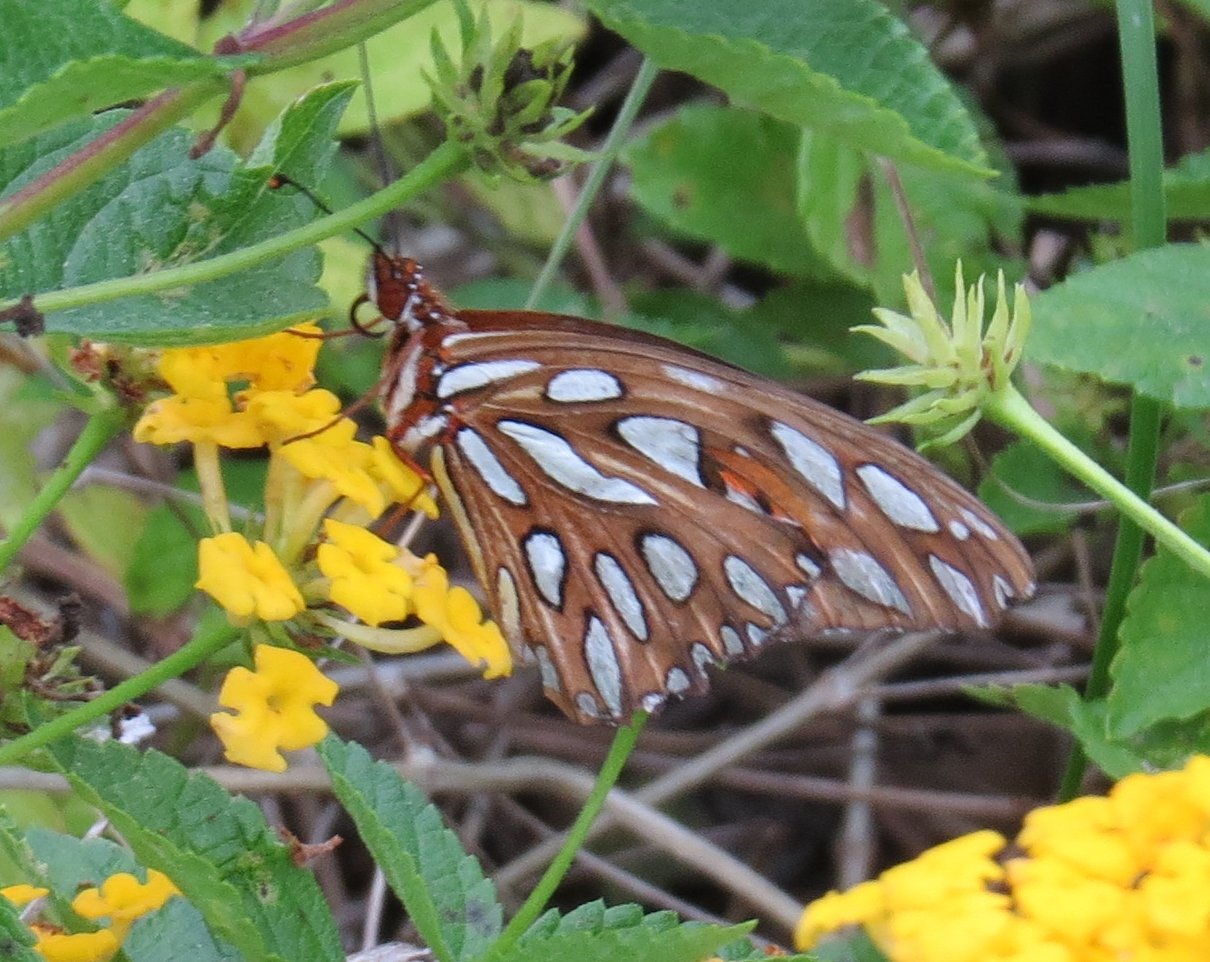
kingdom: Animalia
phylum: Arthropoda
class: Insecta
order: Lepidoptera
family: Nymphalidae
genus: Dione
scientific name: Dione vanillae
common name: Gulf Fritillary
